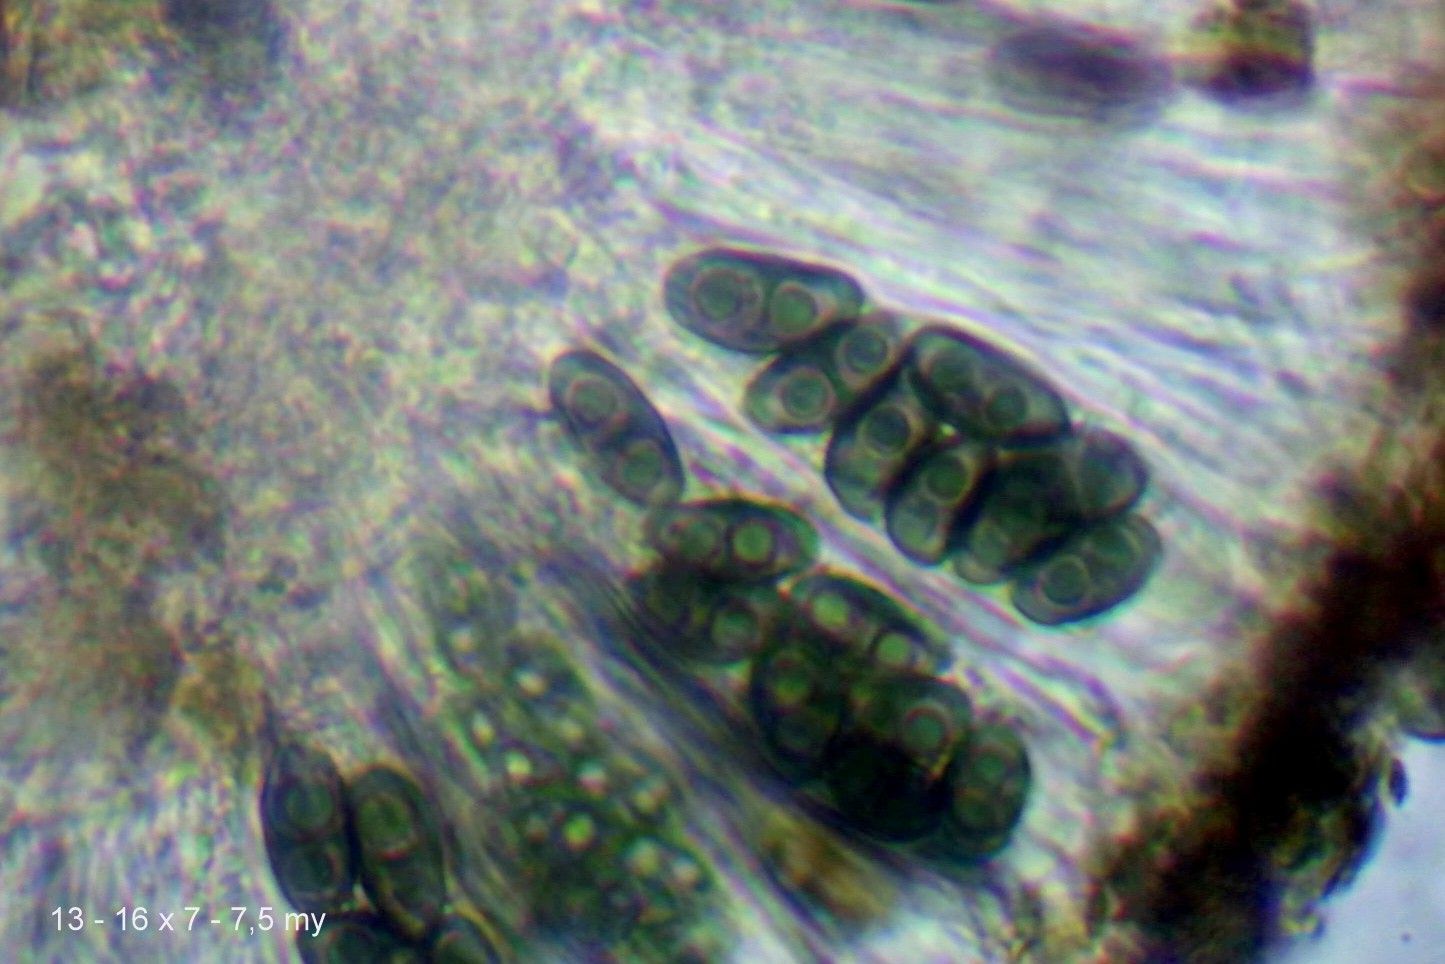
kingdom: Fungi
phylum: Ascomycota
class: Lecanoromycetes
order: Caliciales
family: Physciaceae
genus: Rinodina
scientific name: Rinodina oleae
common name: kyst-knaplav
